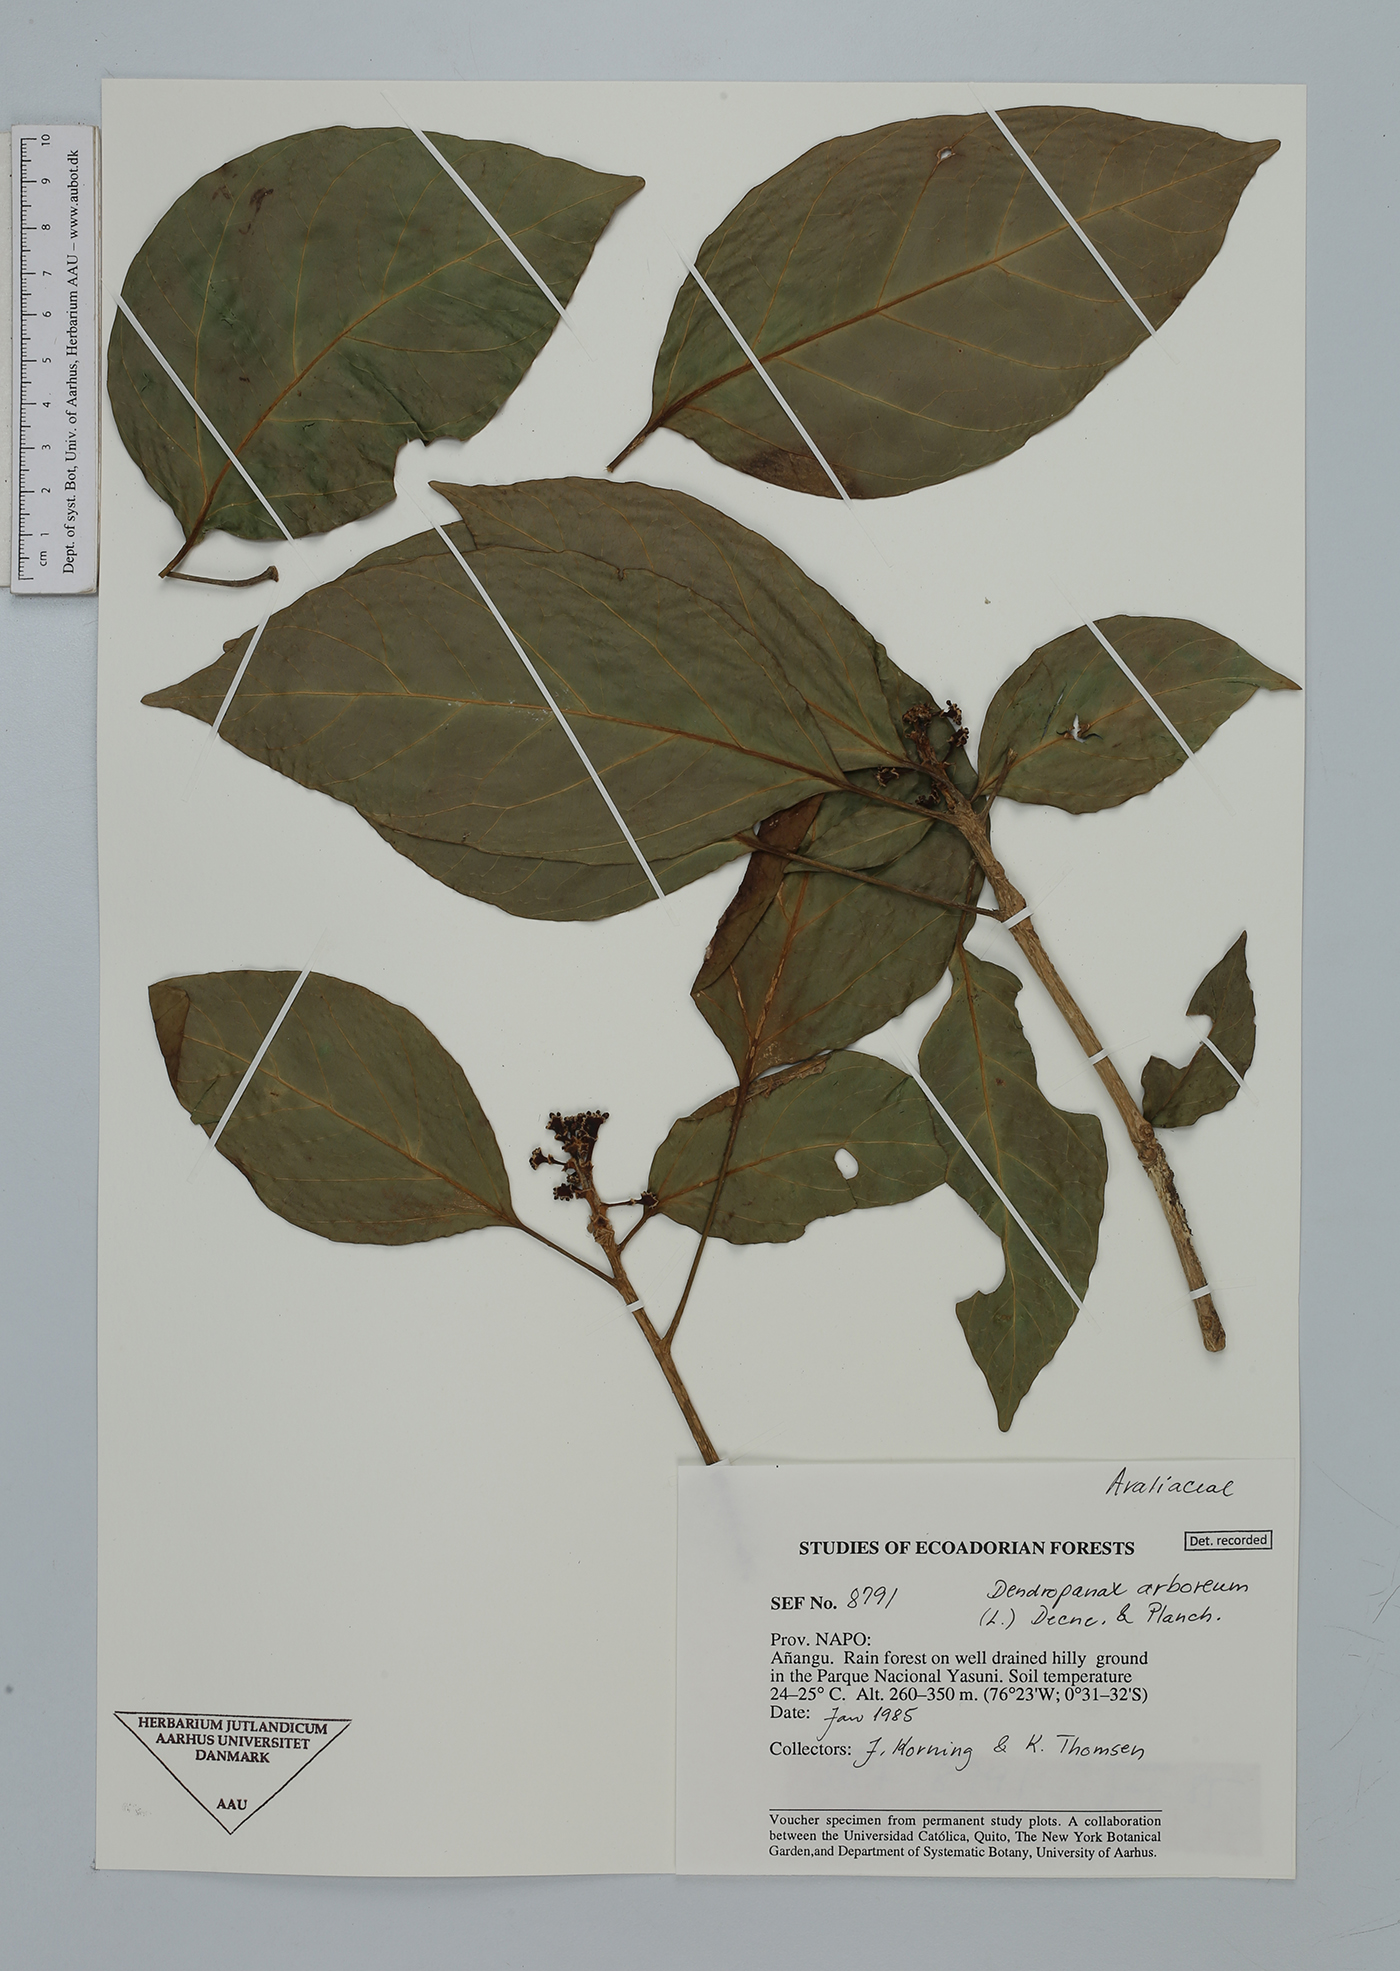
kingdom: Plantae
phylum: Tracheophyta
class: Magnoliopsida
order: Apiales
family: Araliaceae
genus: Dendropanax
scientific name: Dendropanax arboreus
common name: Potato-wood
